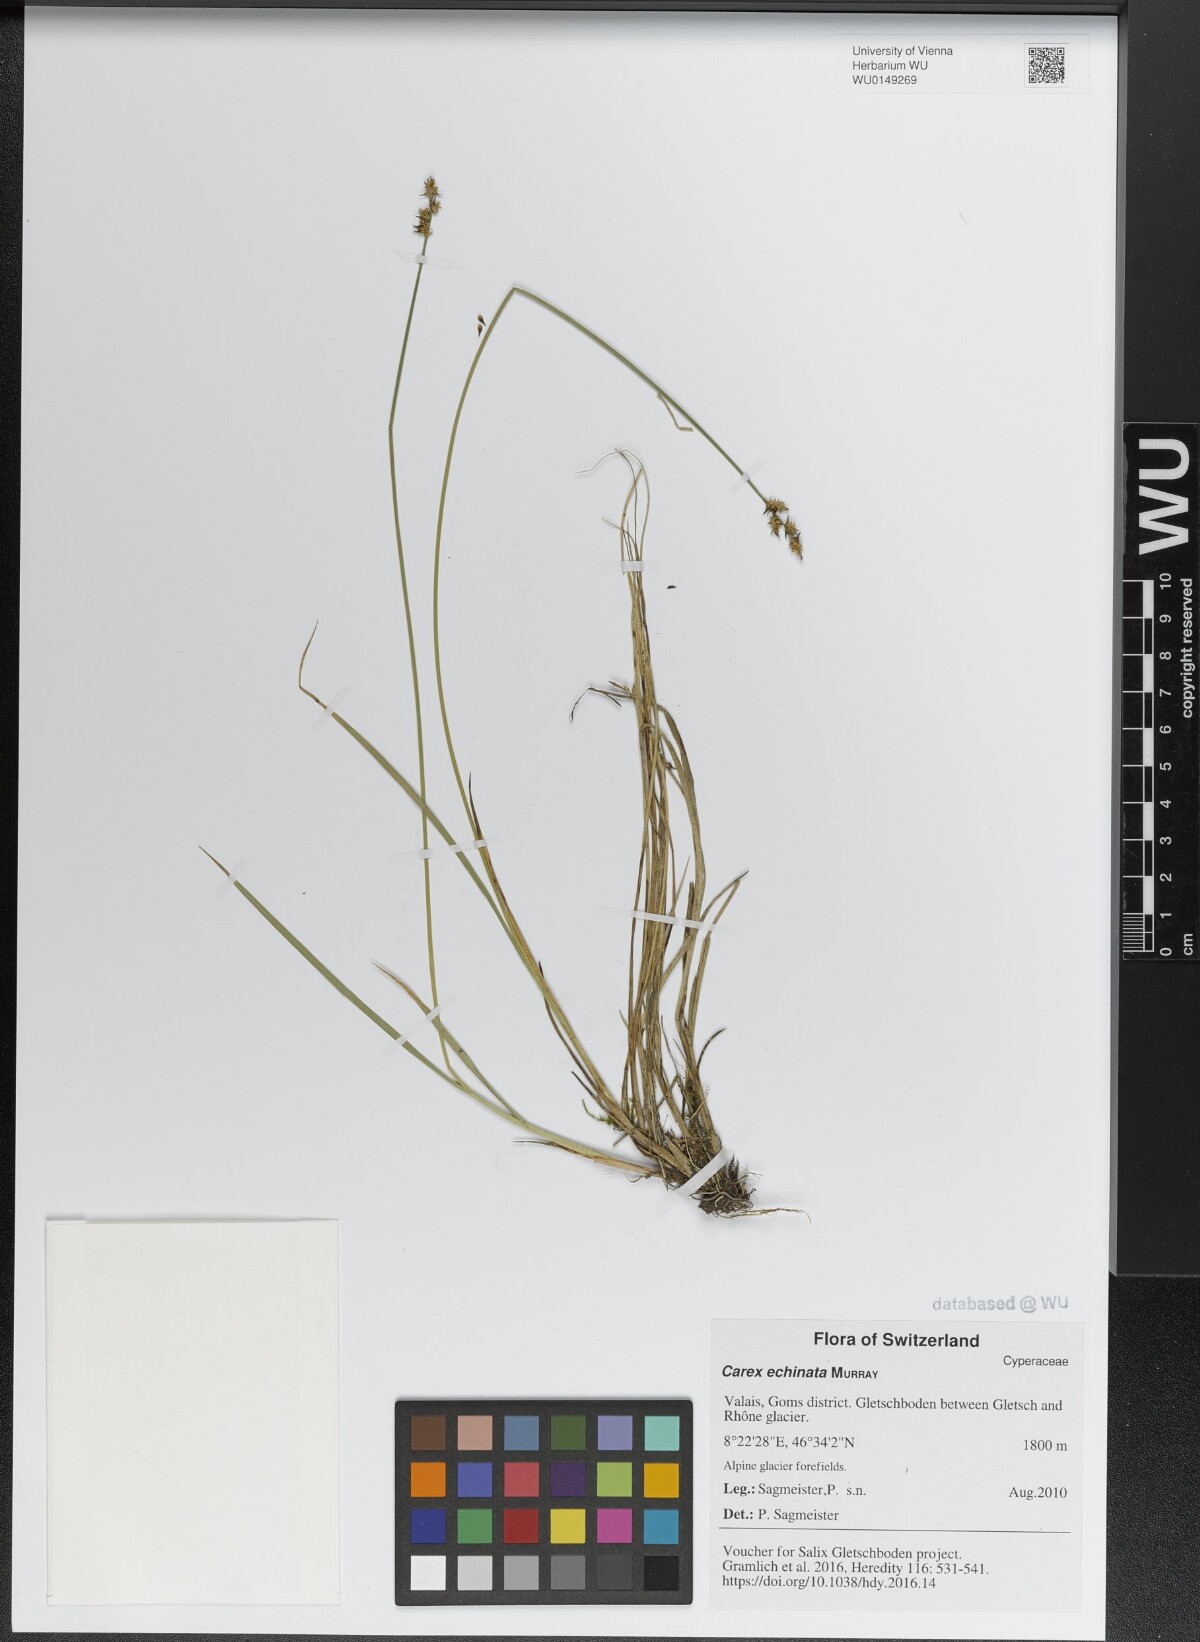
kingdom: Plantae
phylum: Tracheophyta
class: Liliopsida
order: Poales
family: Cyperaceae
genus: Carex
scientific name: Carex echinata
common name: Star sedge
